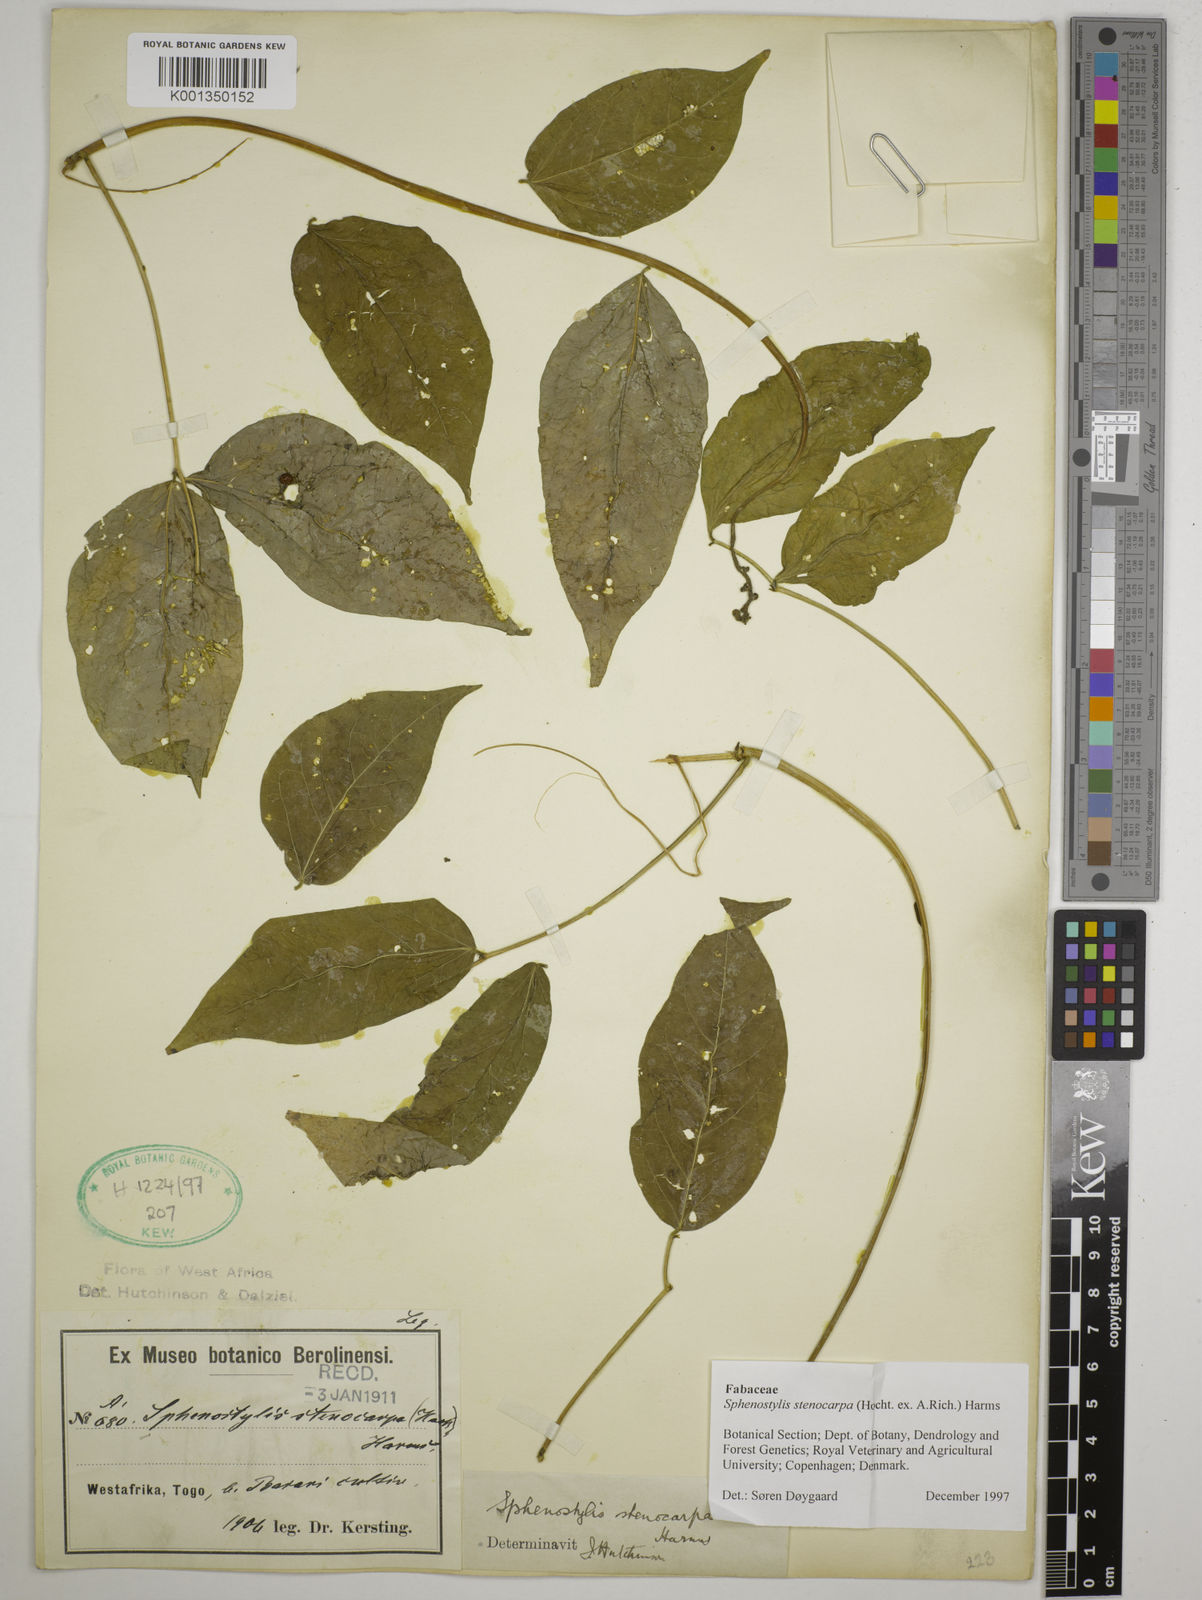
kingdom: Plantae
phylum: Tracheophyta
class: Magnoliopsida
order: Fabales
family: Fabaceae
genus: Sphenostylis
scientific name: Sphenostylis stenocarpa
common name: Yam-pea
